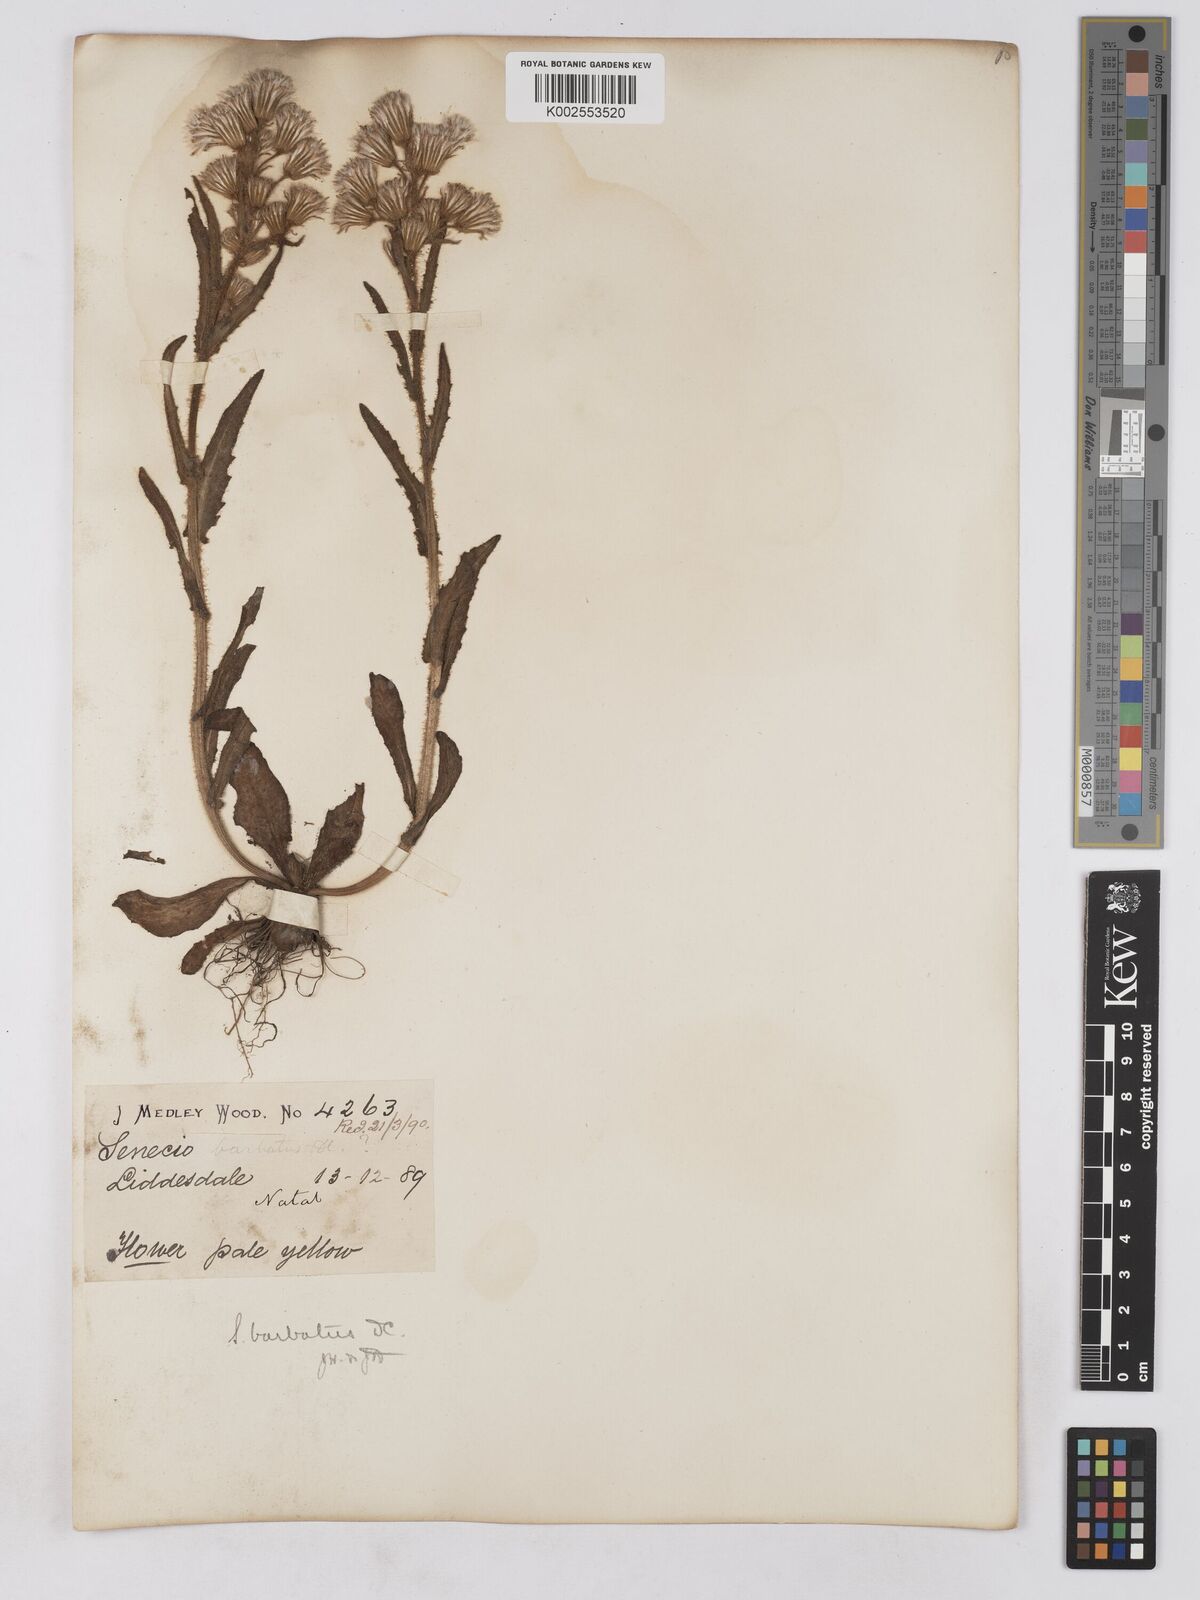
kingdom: Plantae
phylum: Tracheophyta
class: Magnoliopsida
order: Asterales
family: Asteraceae
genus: Senecio
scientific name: Senecio barbatus
